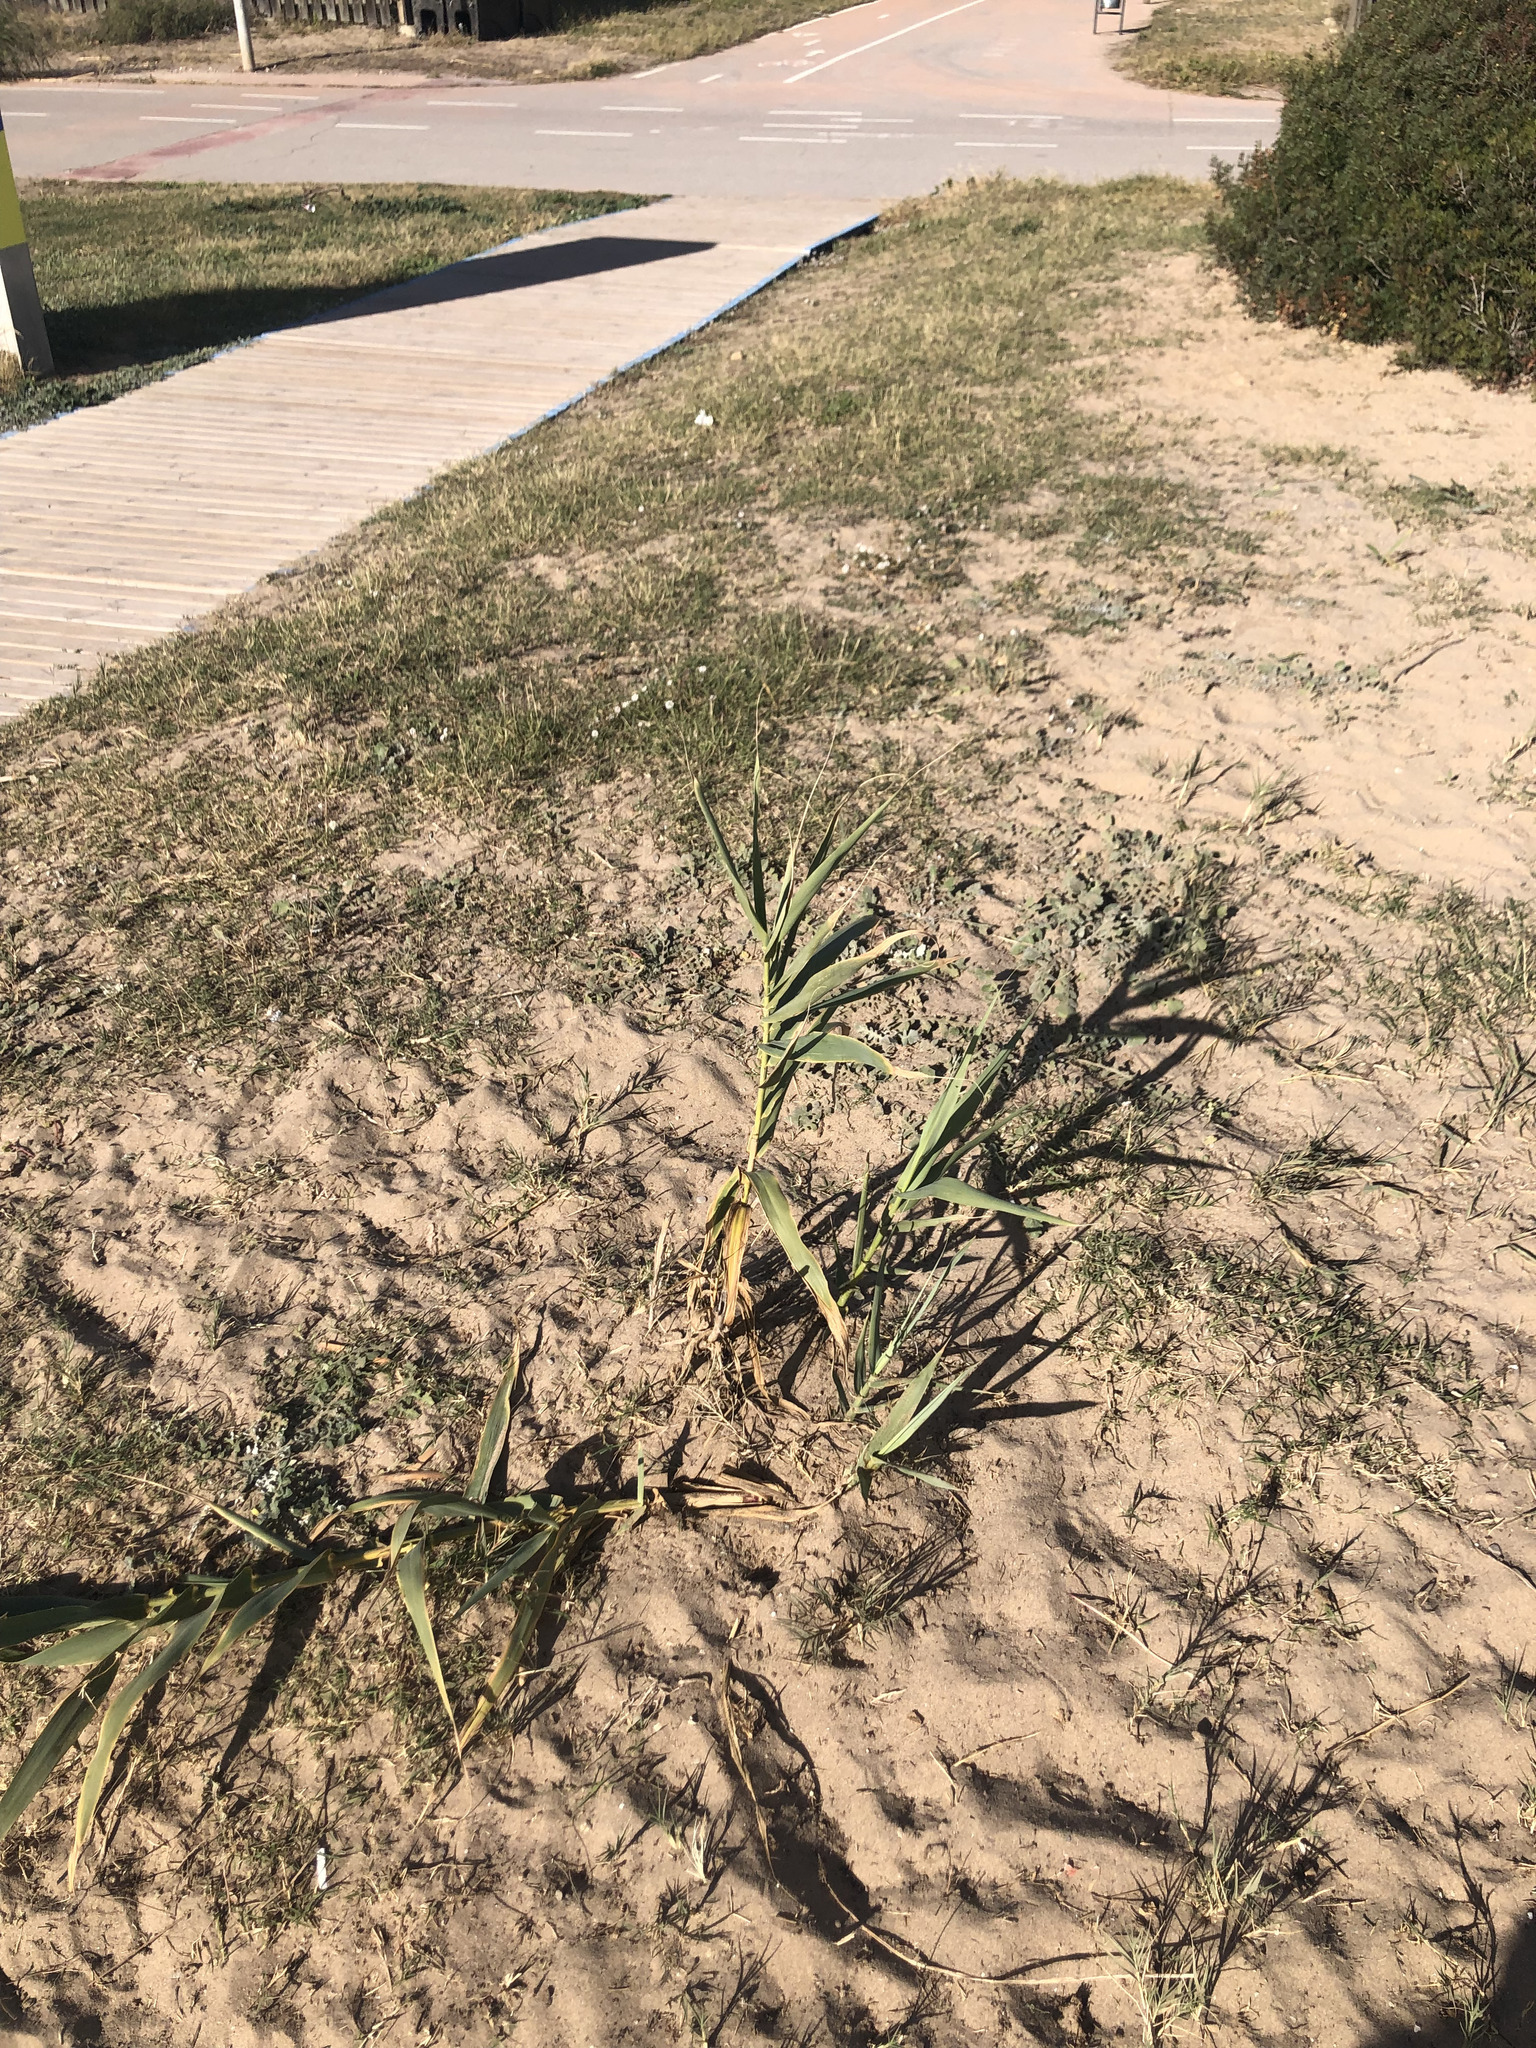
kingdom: Plantae
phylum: Tracheophyta
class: Liliopsida
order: Poales
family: Poaceae
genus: Arundo
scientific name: Arundo donax
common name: Giant reed
